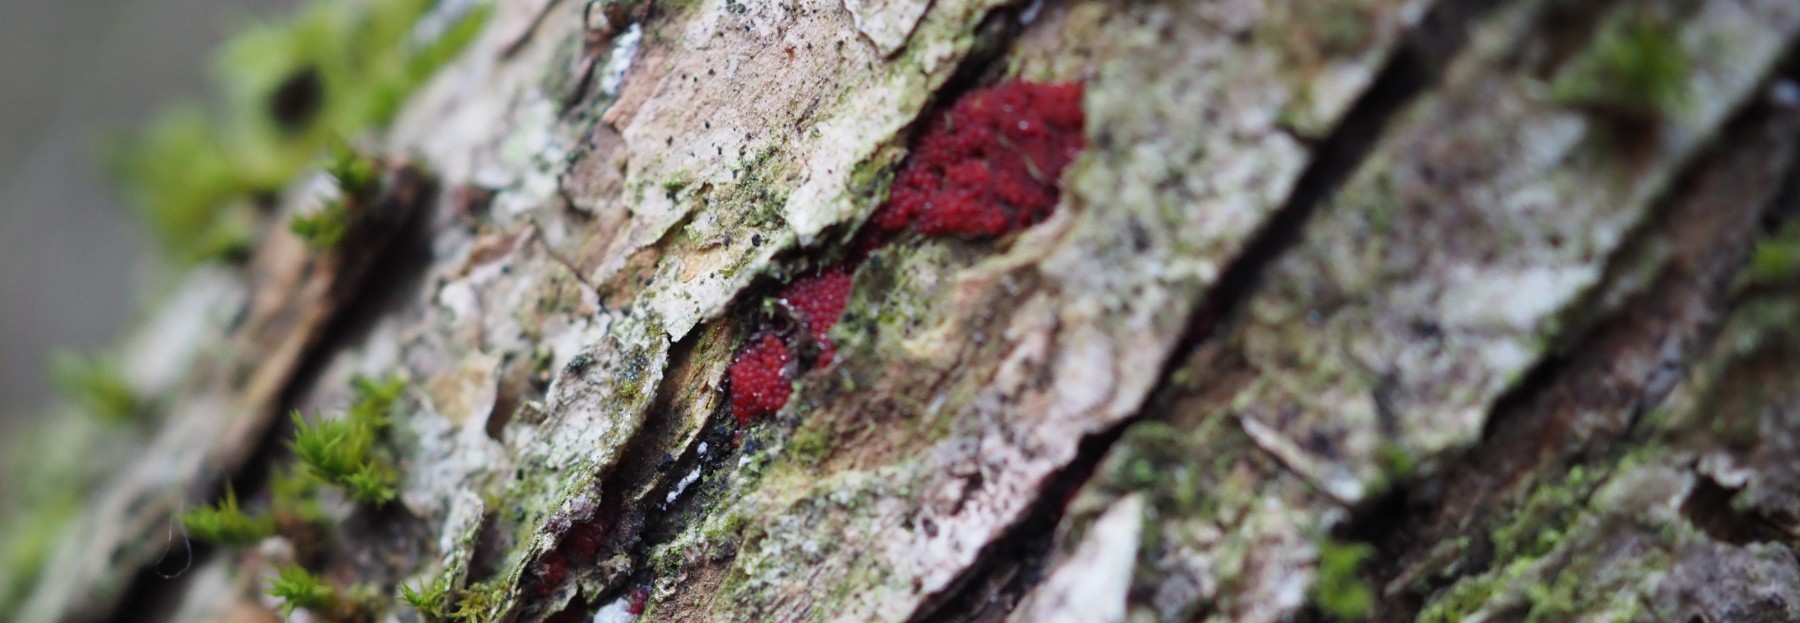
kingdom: Fungi
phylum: Ascomycota
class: Sordariomycetes
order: Hypocreales
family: Nectriaceae
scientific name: Nectriaceae
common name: cinnobersvampfamilien
